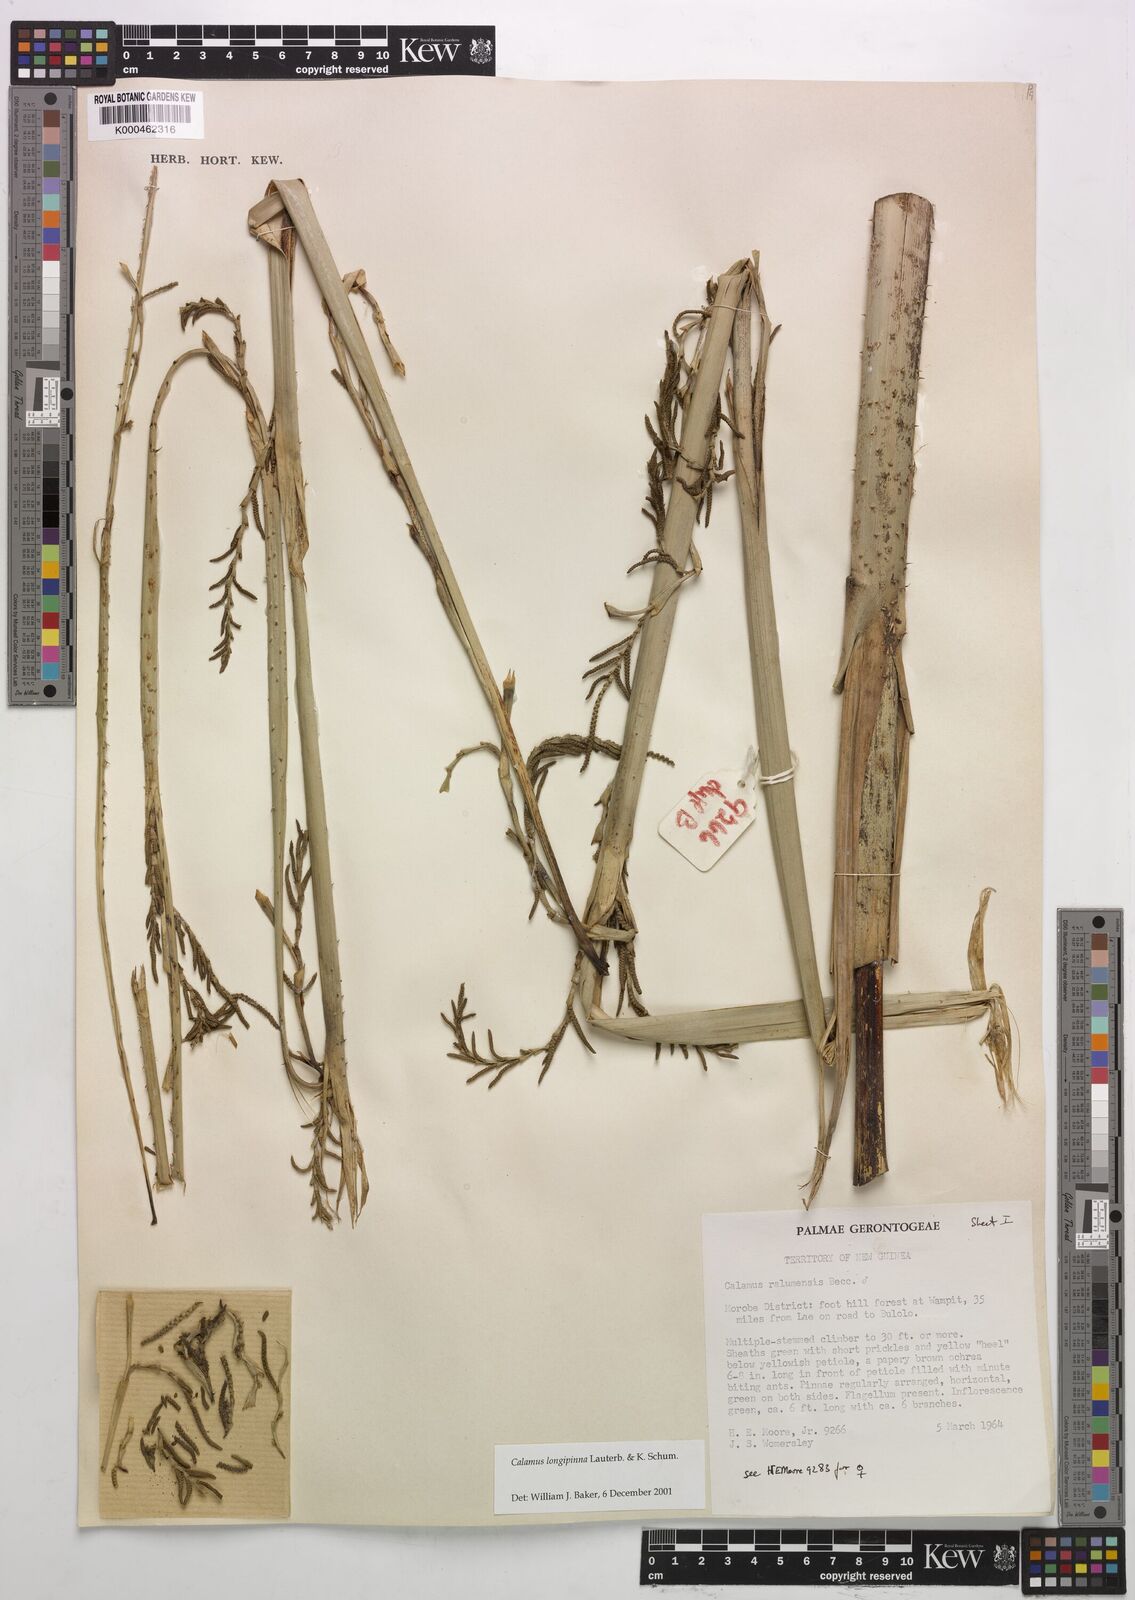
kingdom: Plantae
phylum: Tracheophyta
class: Liliopsida
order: Arecales
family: Arecaceae
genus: Calamus
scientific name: Calamus longipinna
